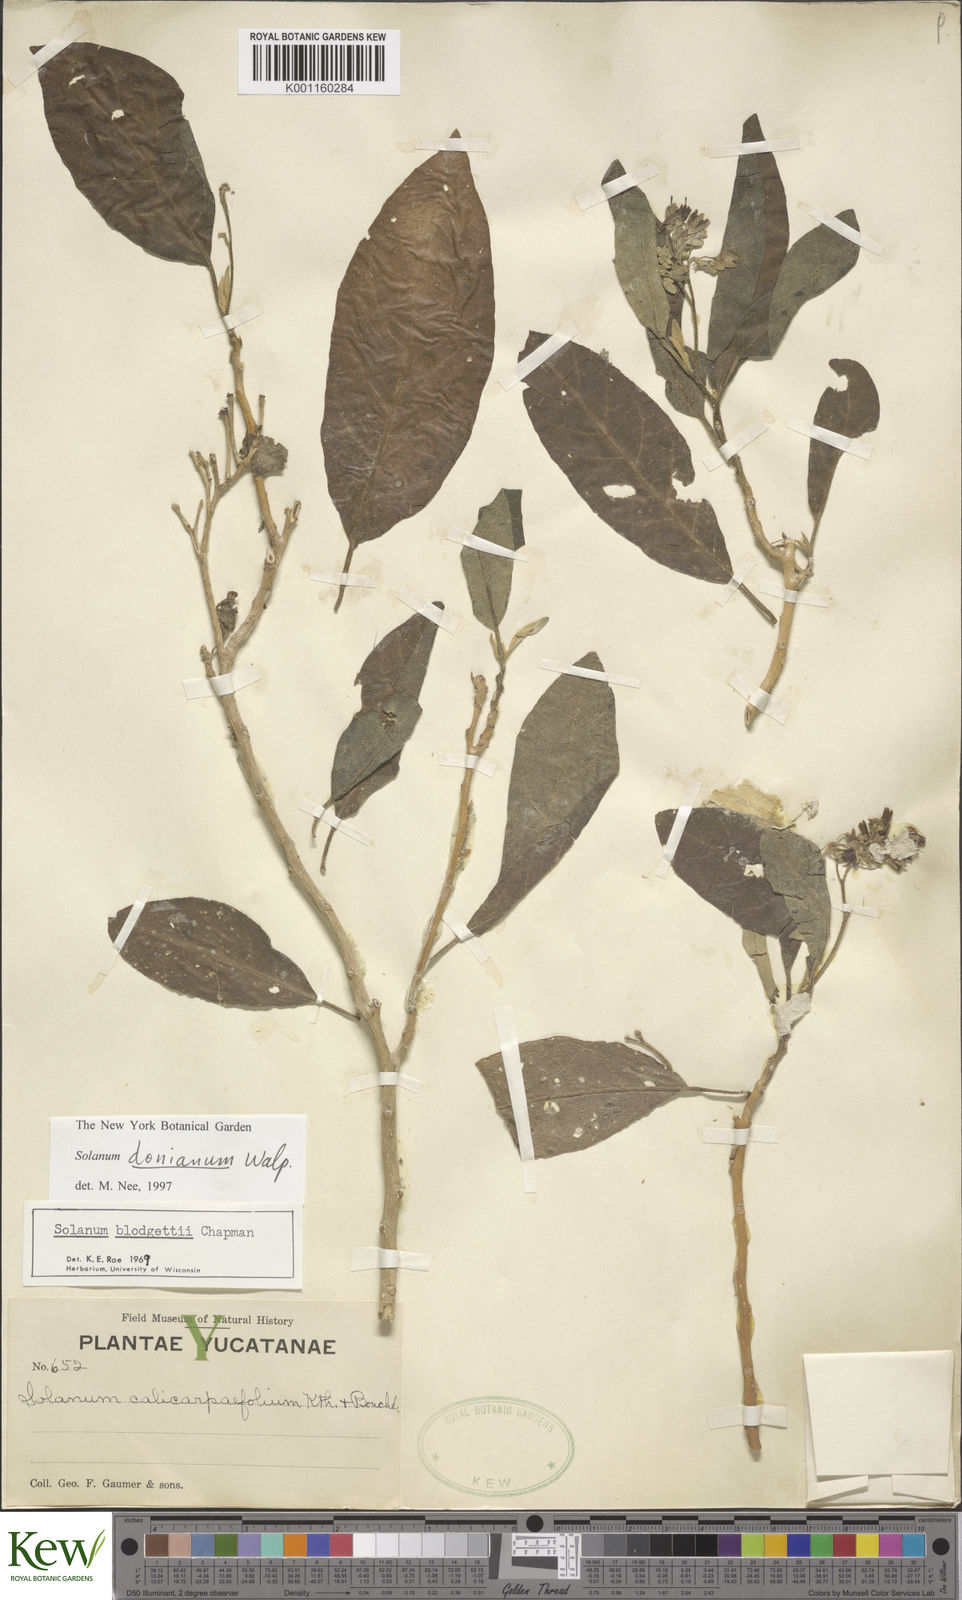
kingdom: Plantae
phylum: Tracheophyta
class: Magnoliopsida
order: Solanales
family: Solanaceae
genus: Solanum
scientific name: Solanum donianum
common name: Mullein nightshade
